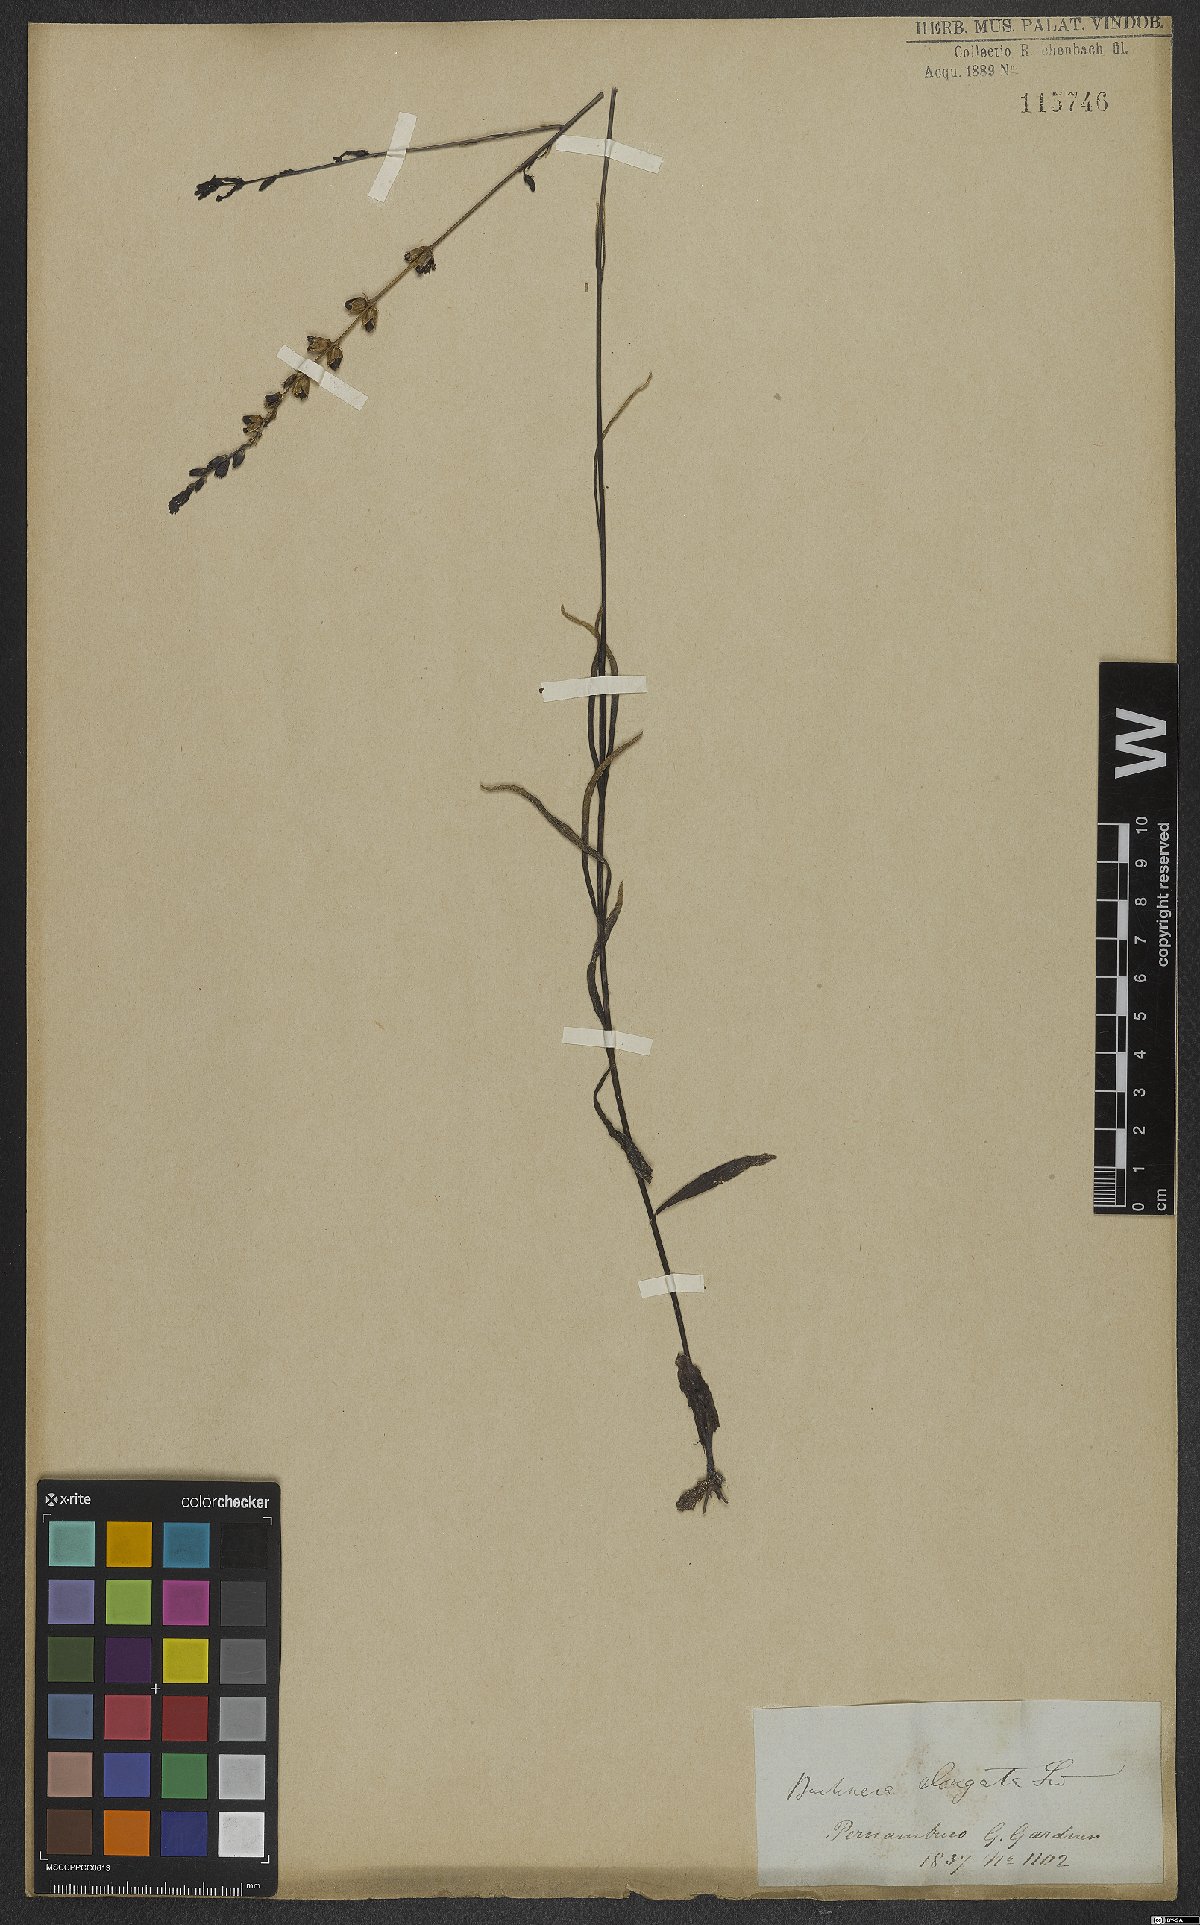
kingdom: Plantae
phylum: Tracheophyta
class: Magnoliopsida
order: Lamiales
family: Orobanchaceae
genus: Buchnera
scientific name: Buchnera
